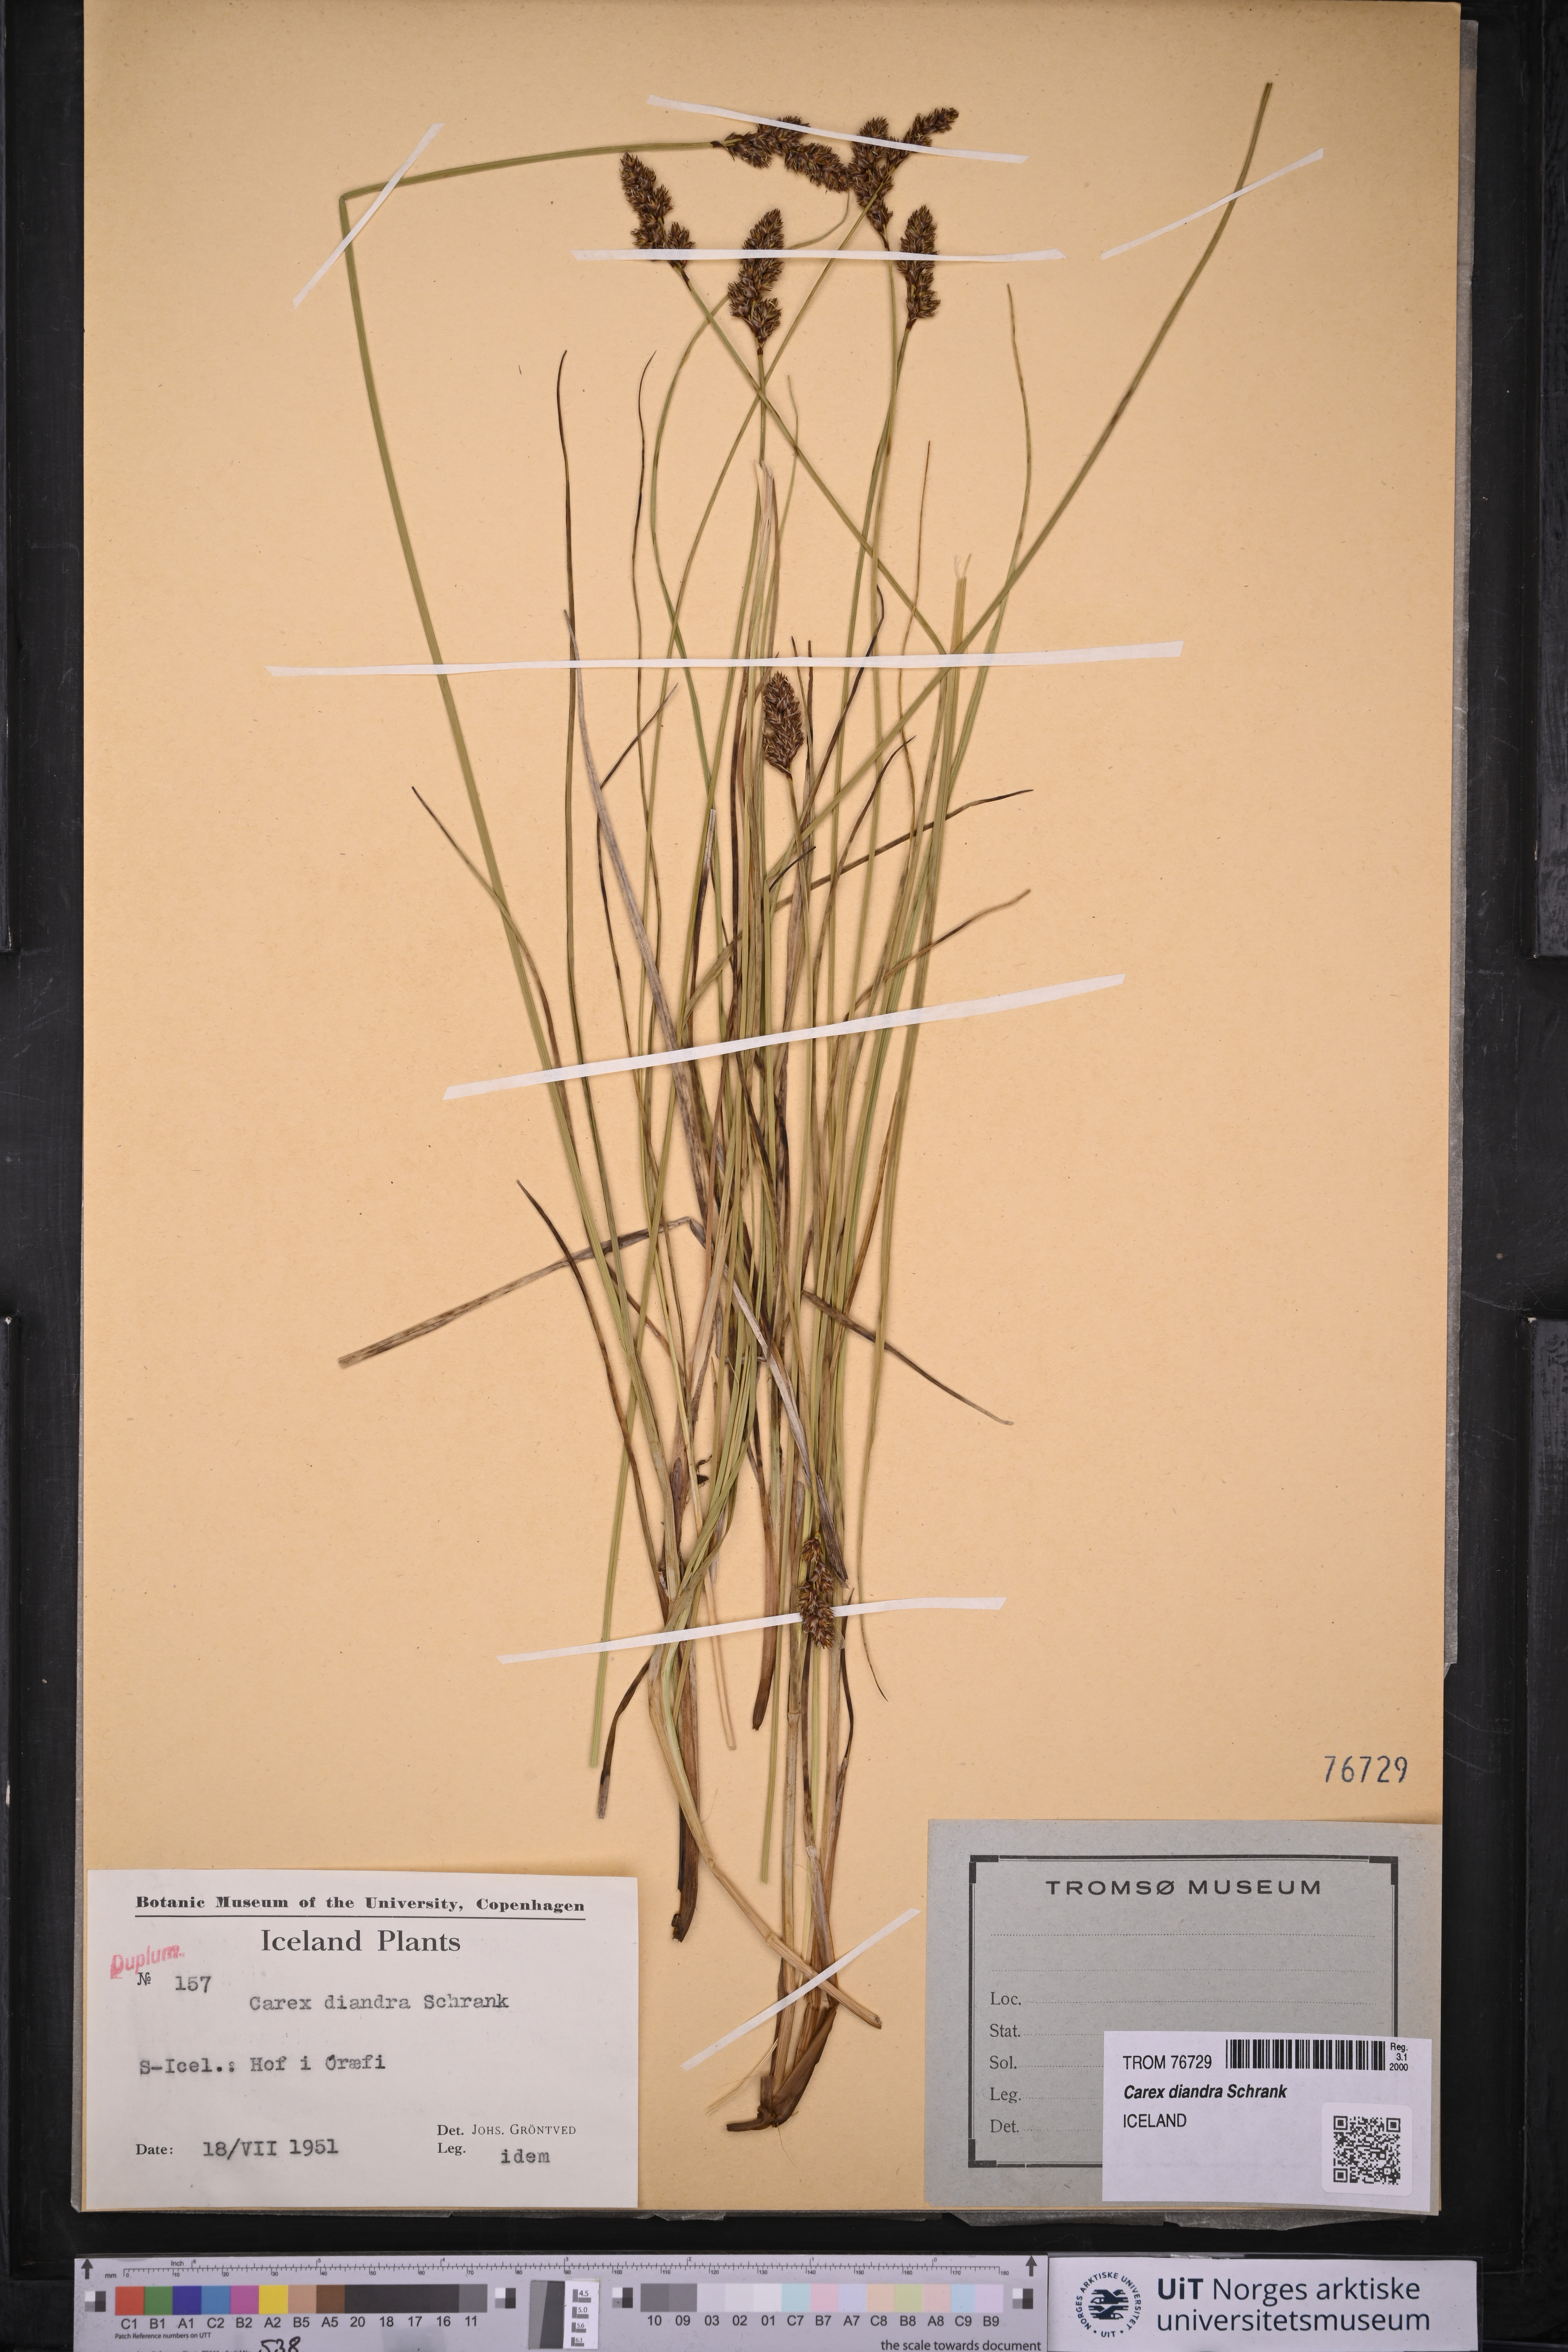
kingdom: Plantae
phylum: Tracheophyta
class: Liliopsida
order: Poales
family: Cyperaceae
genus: Carex
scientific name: Carex diandra
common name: Lesser tussock-sedge
